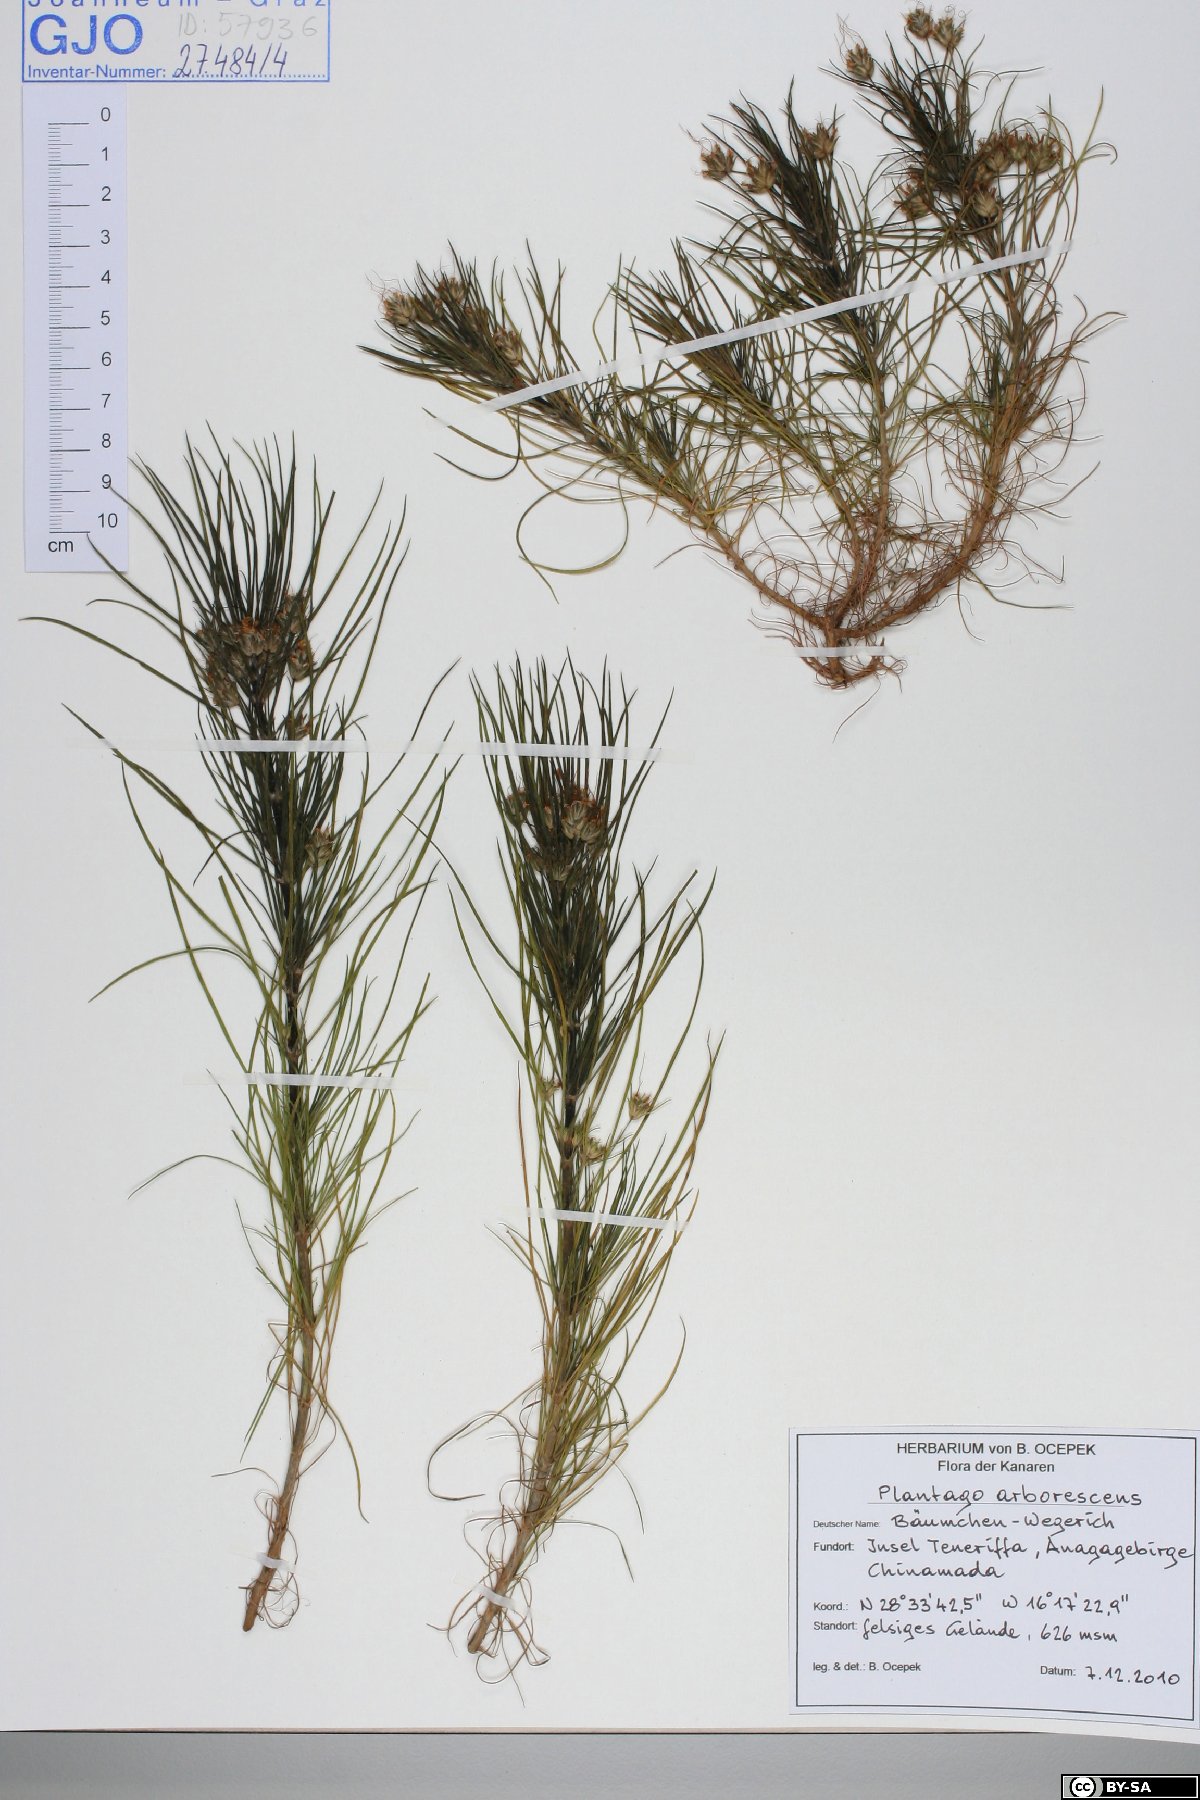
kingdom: Plantae
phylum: Tracheophyta
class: Magnoliopsida
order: Lamiales
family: Plantaginaceae
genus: Plantago
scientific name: Plantago arborescens
